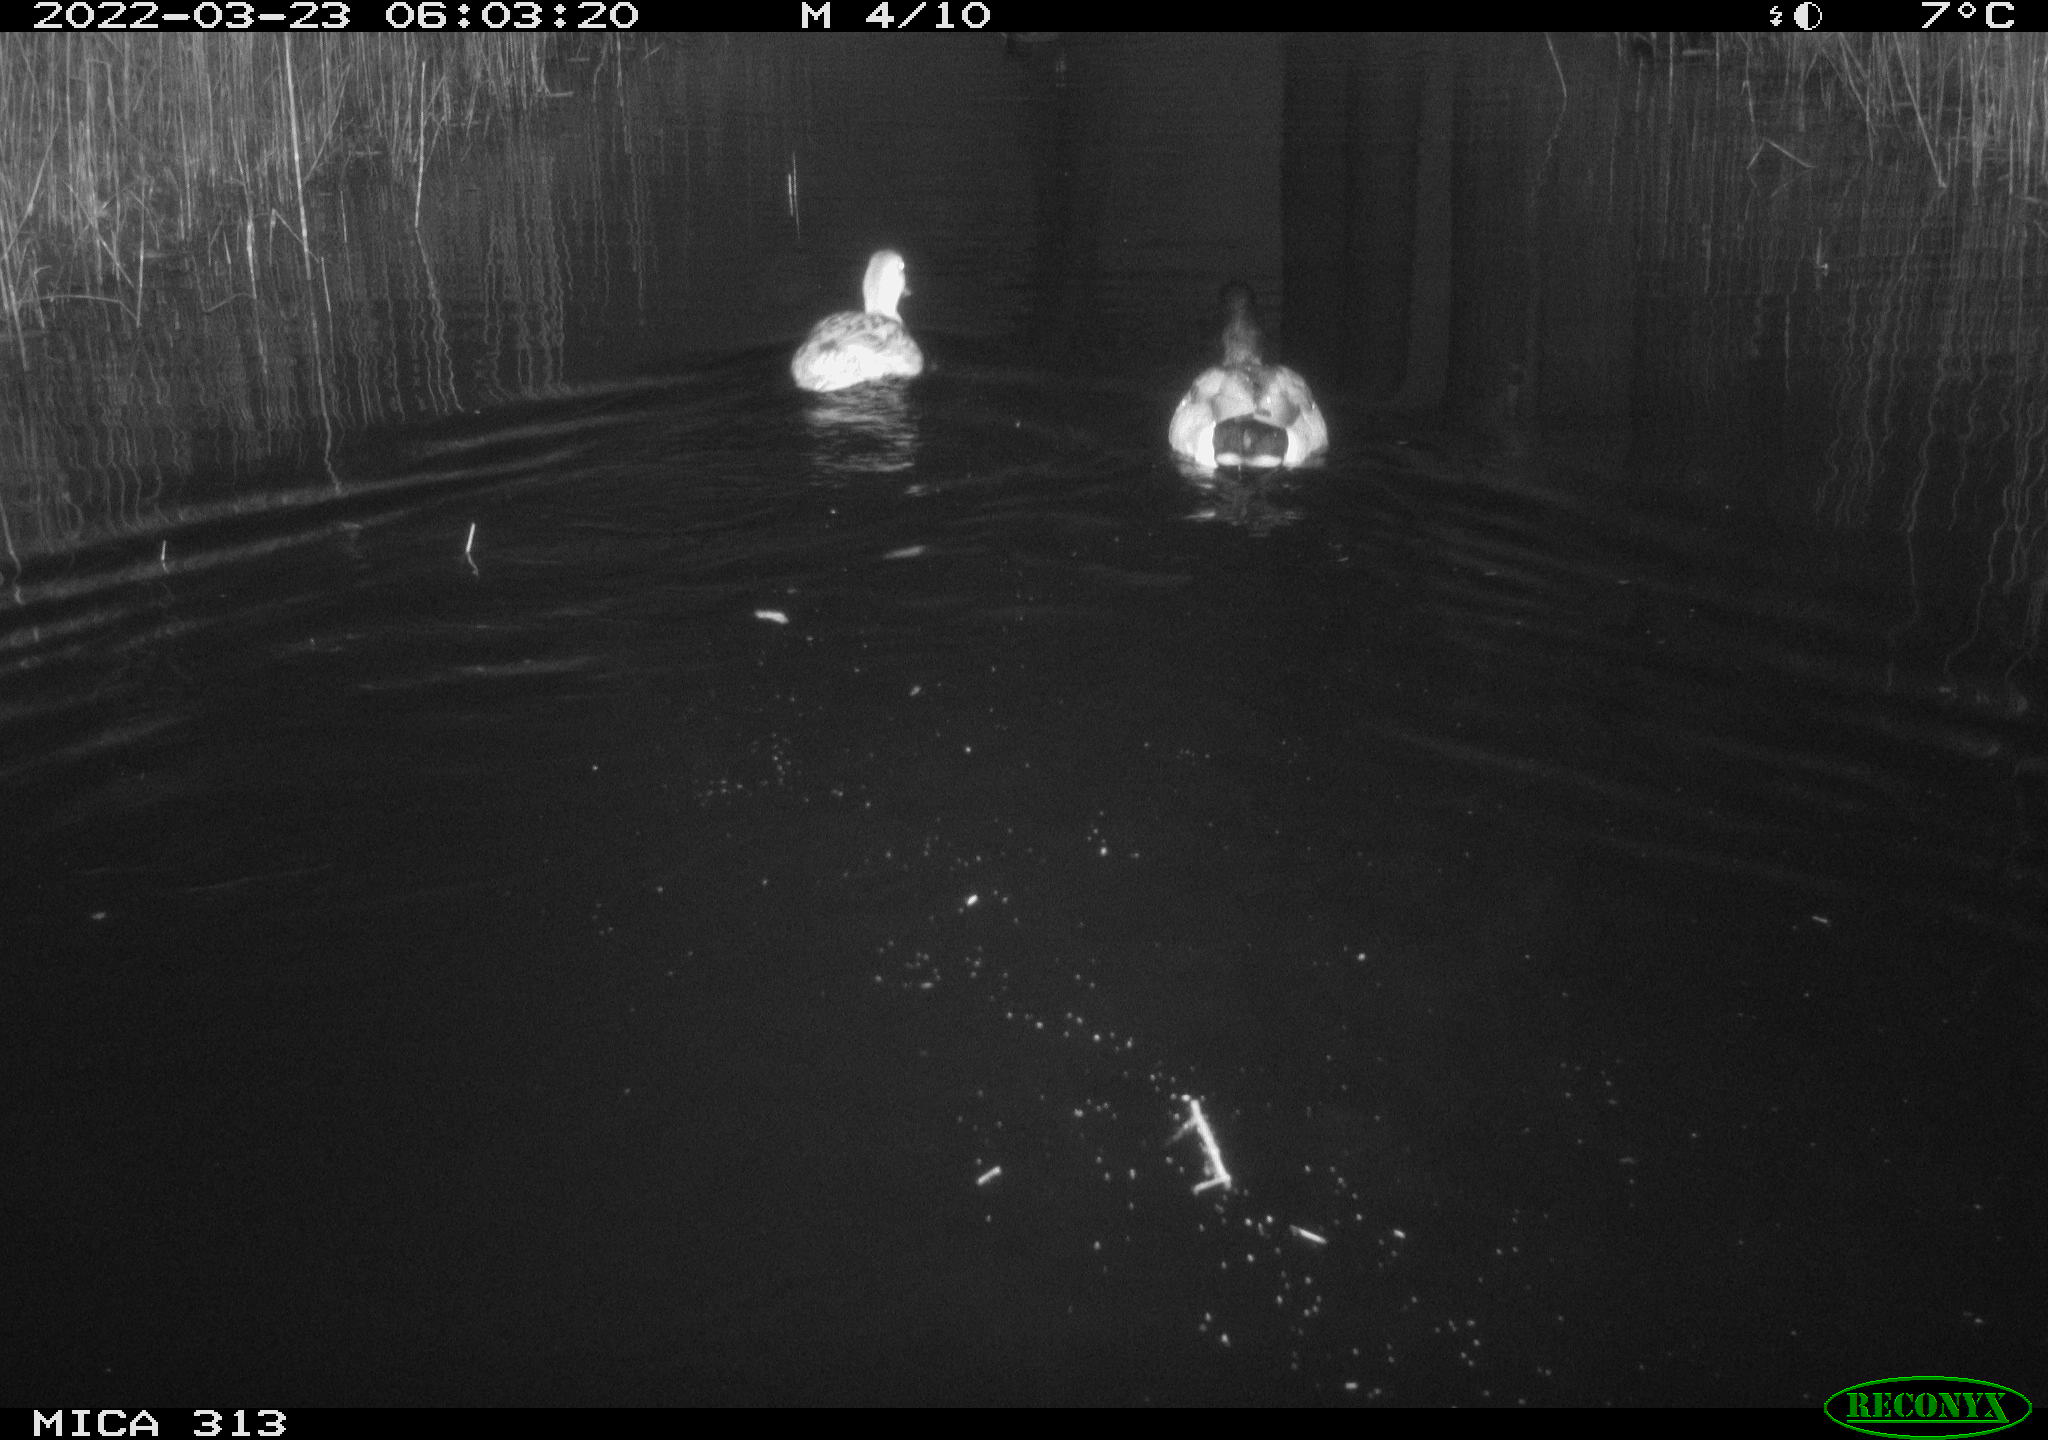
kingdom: Animalia
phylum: Chordata
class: Aves
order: Gruiformes
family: Rallidae
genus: Gallinula
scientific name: Gallinula chloropus
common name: Common moorhen
